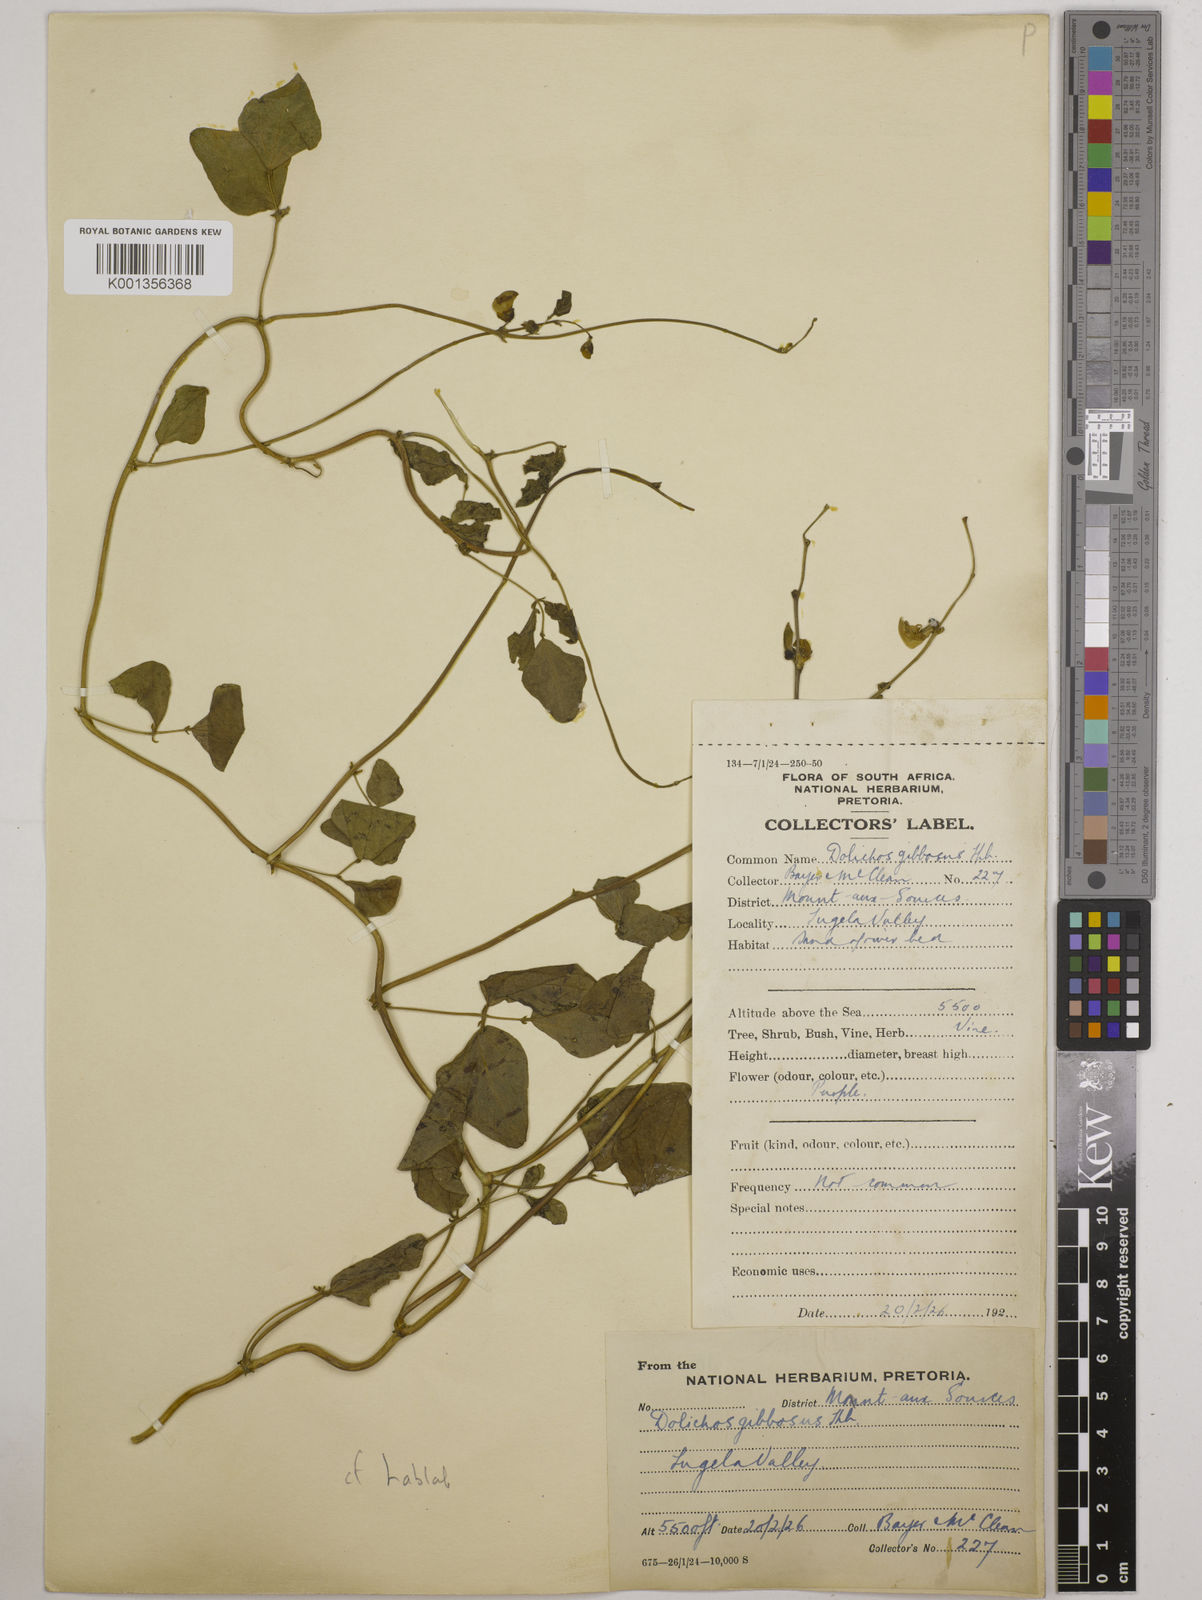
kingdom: Plantae
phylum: Tracheophyta
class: Magnoliopsida
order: Fabales
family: Fabaceae
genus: Lablab
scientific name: Lablab purpureus
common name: Lablab-bean
